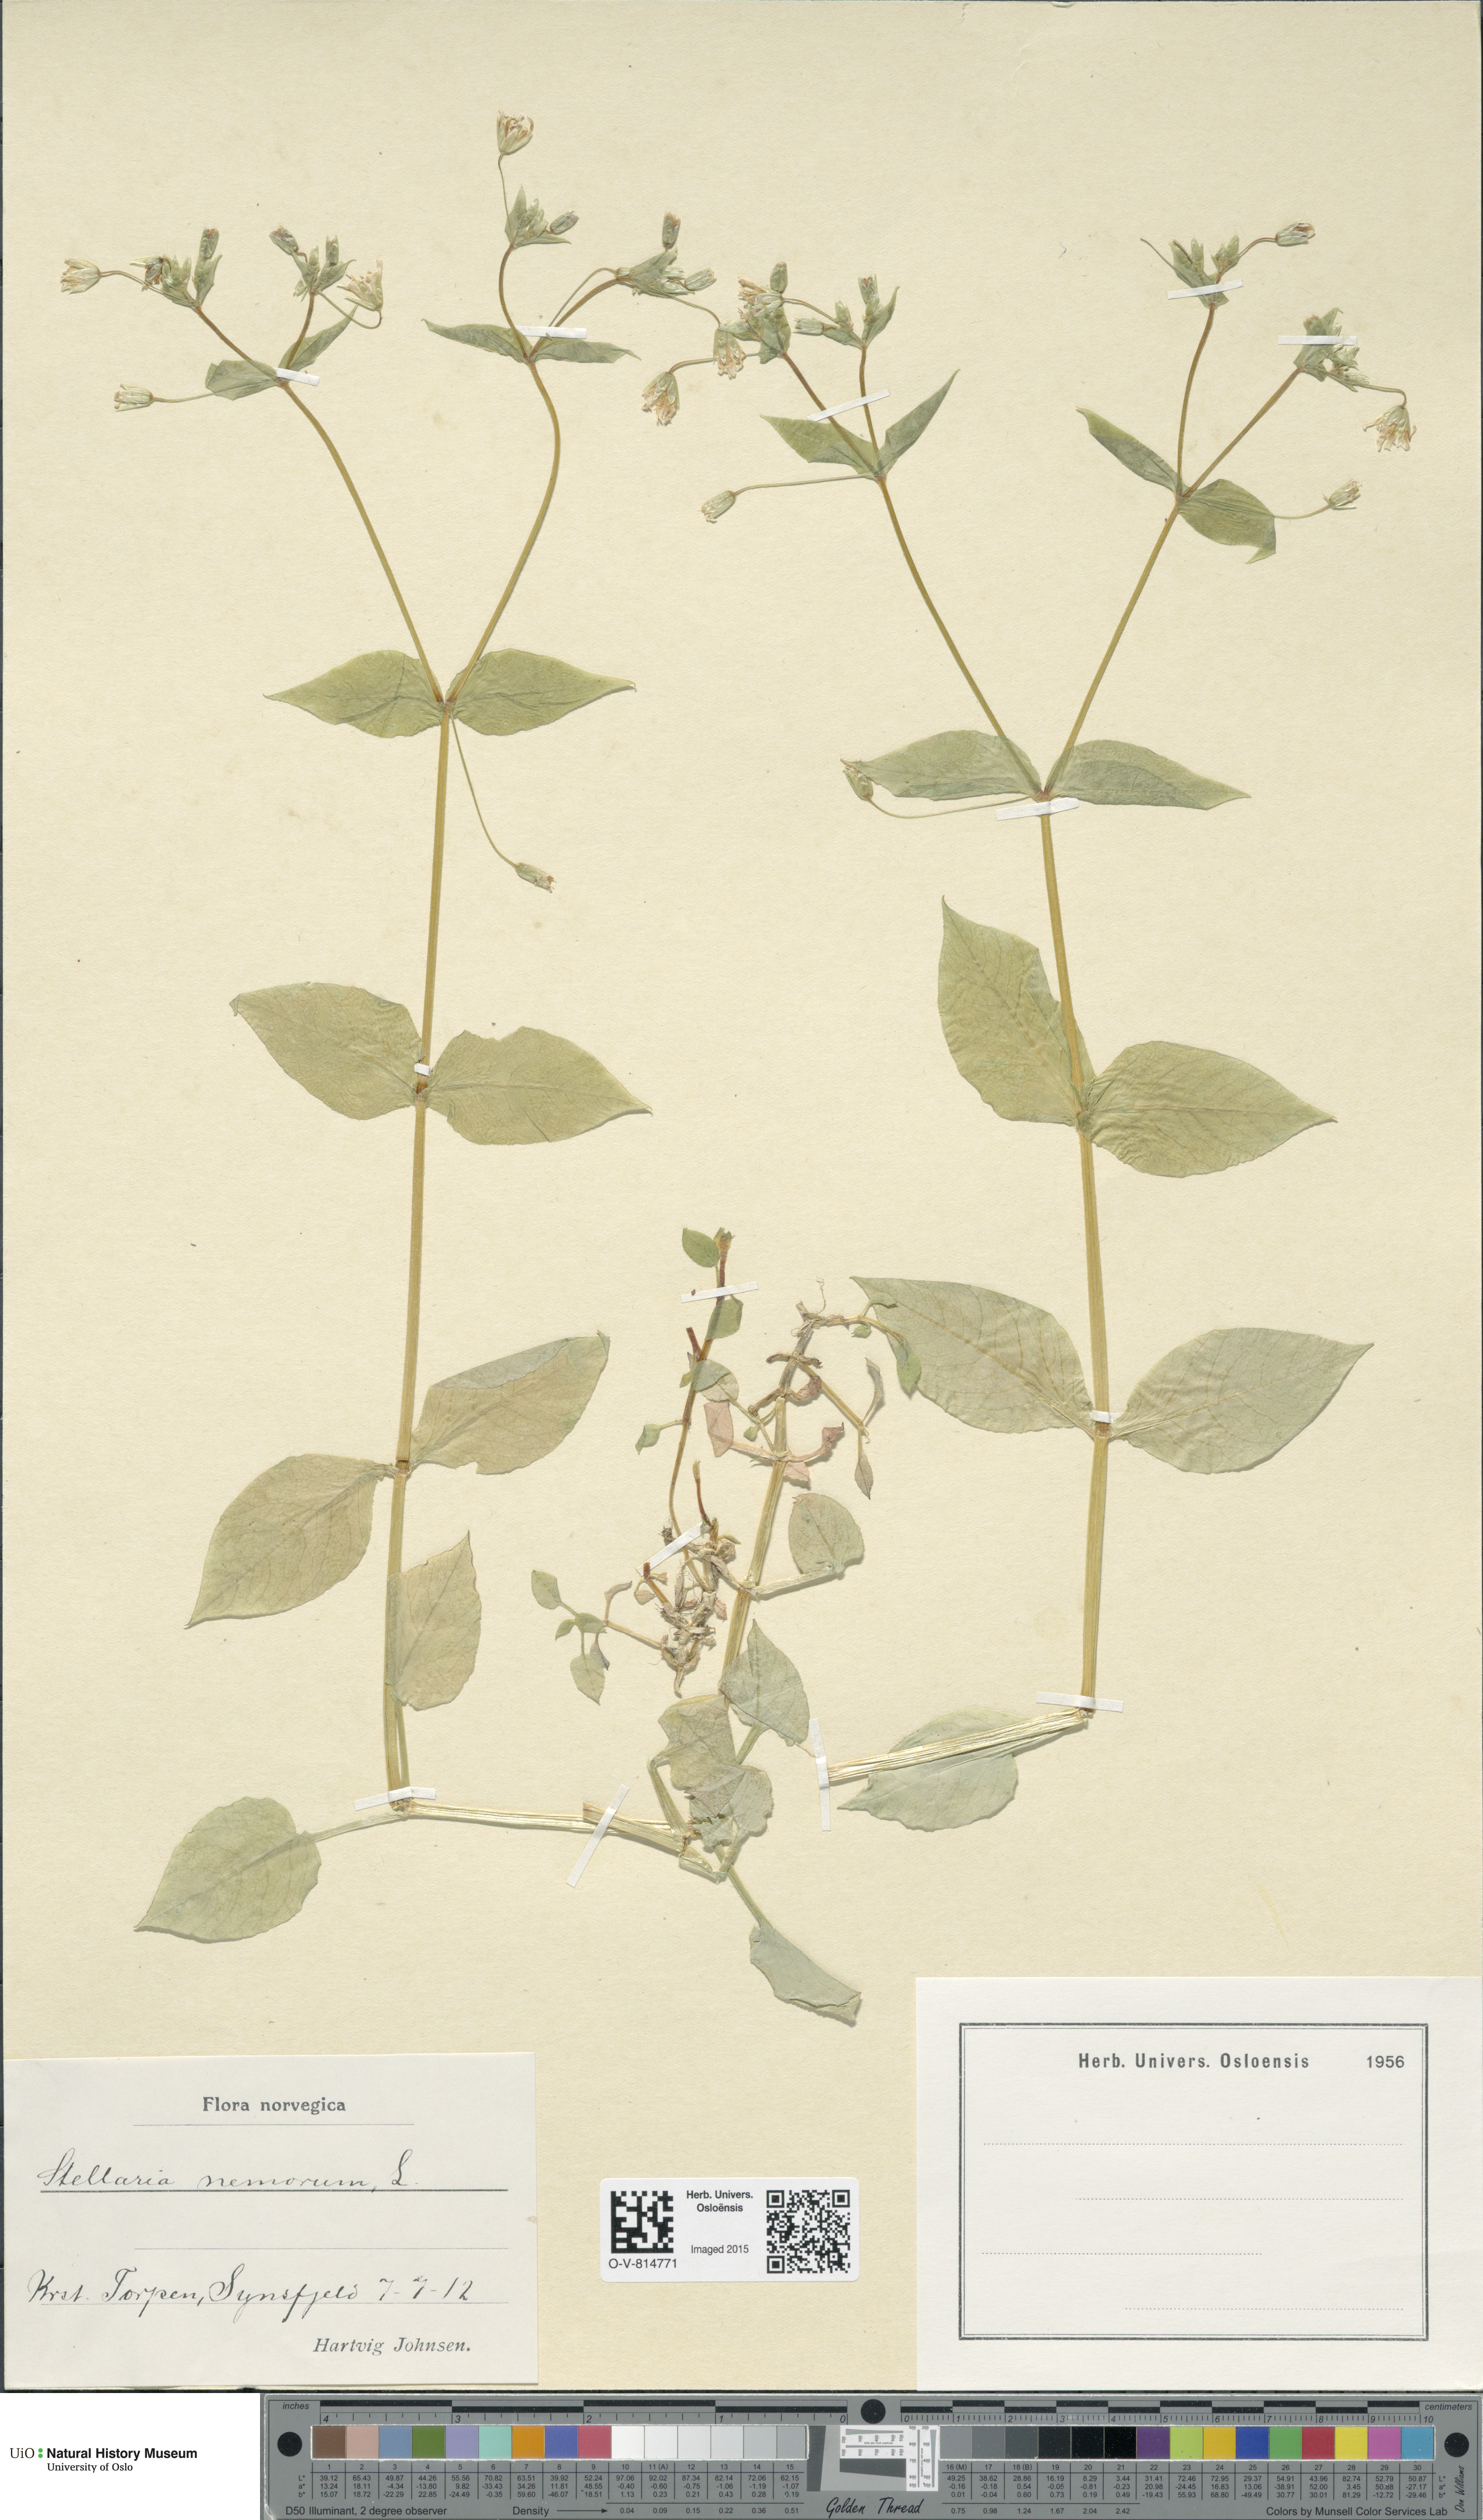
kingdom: Plantae
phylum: Tracheophyta
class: Magnoliopsida
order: Caryophyllales
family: Caryophyllaceae
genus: Stellaria
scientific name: Stellaria nemorum
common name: Wood stitchwort
